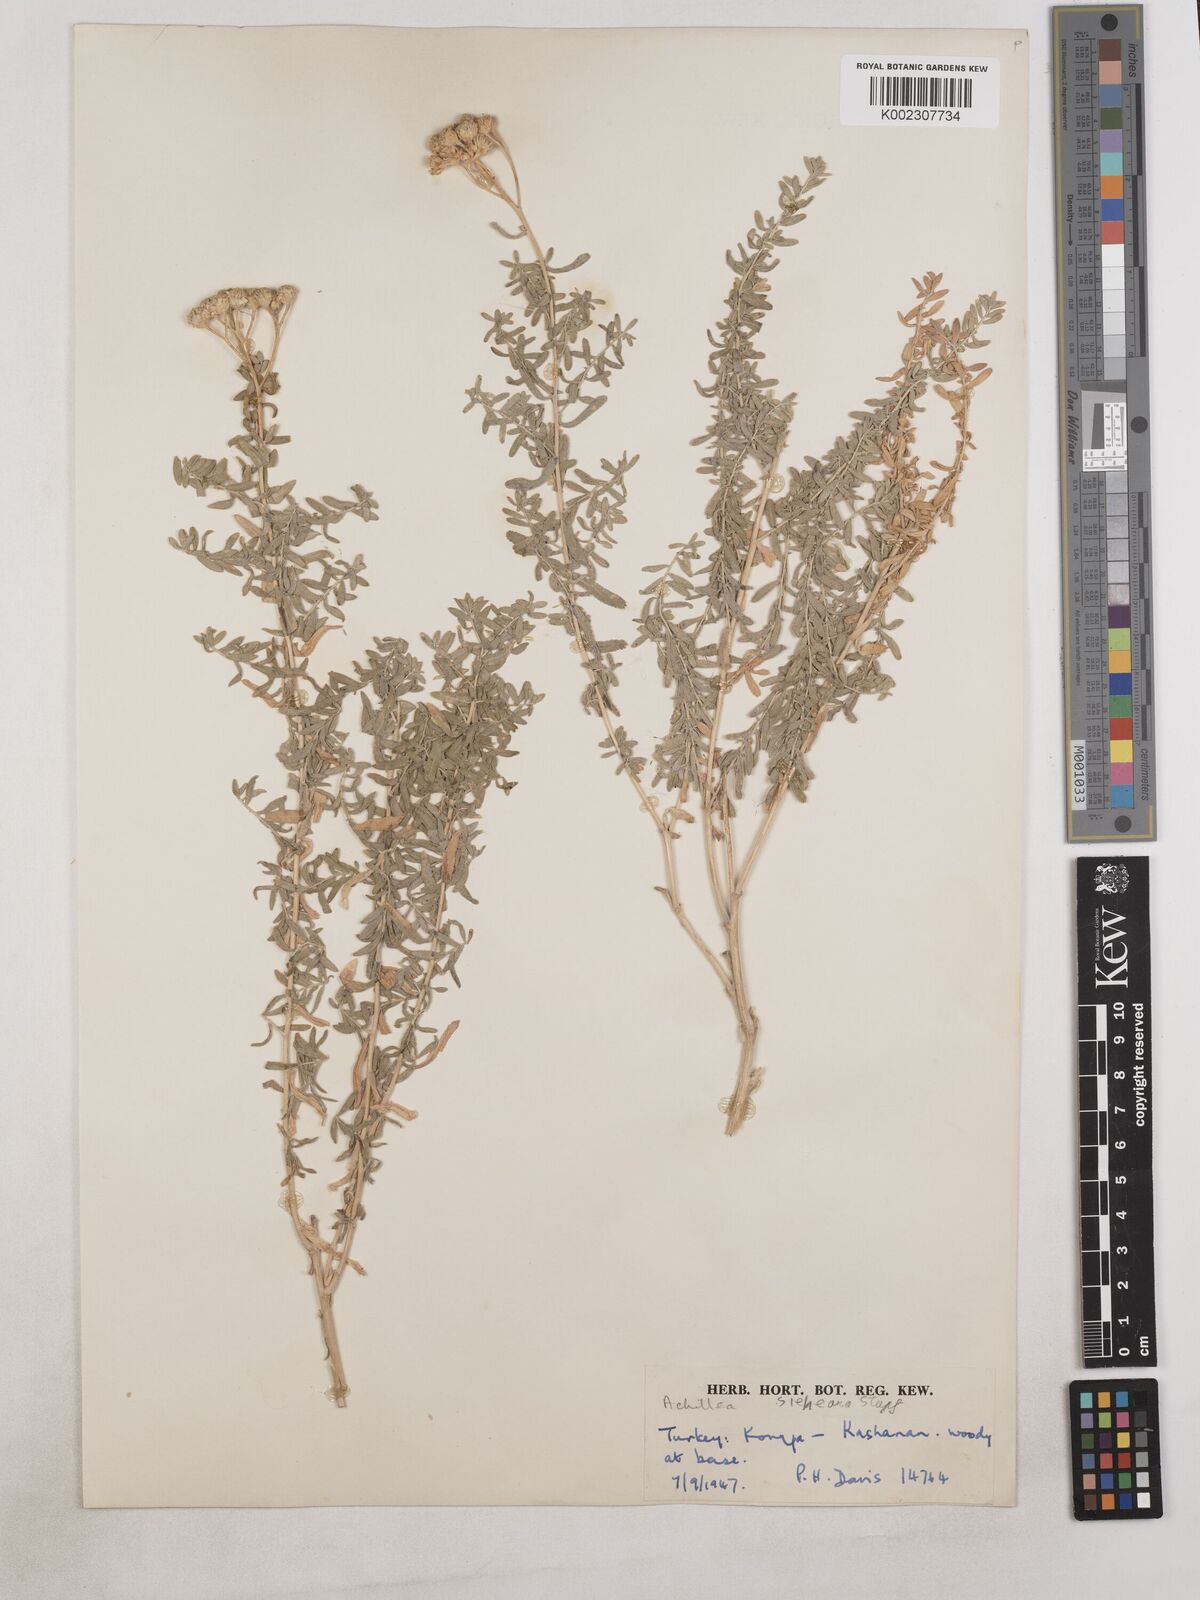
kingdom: Plantae
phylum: Tracheophyta
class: Magnoliopsida
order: Asterales
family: Asteraceae
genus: Achillea
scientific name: Achillea sieheana
